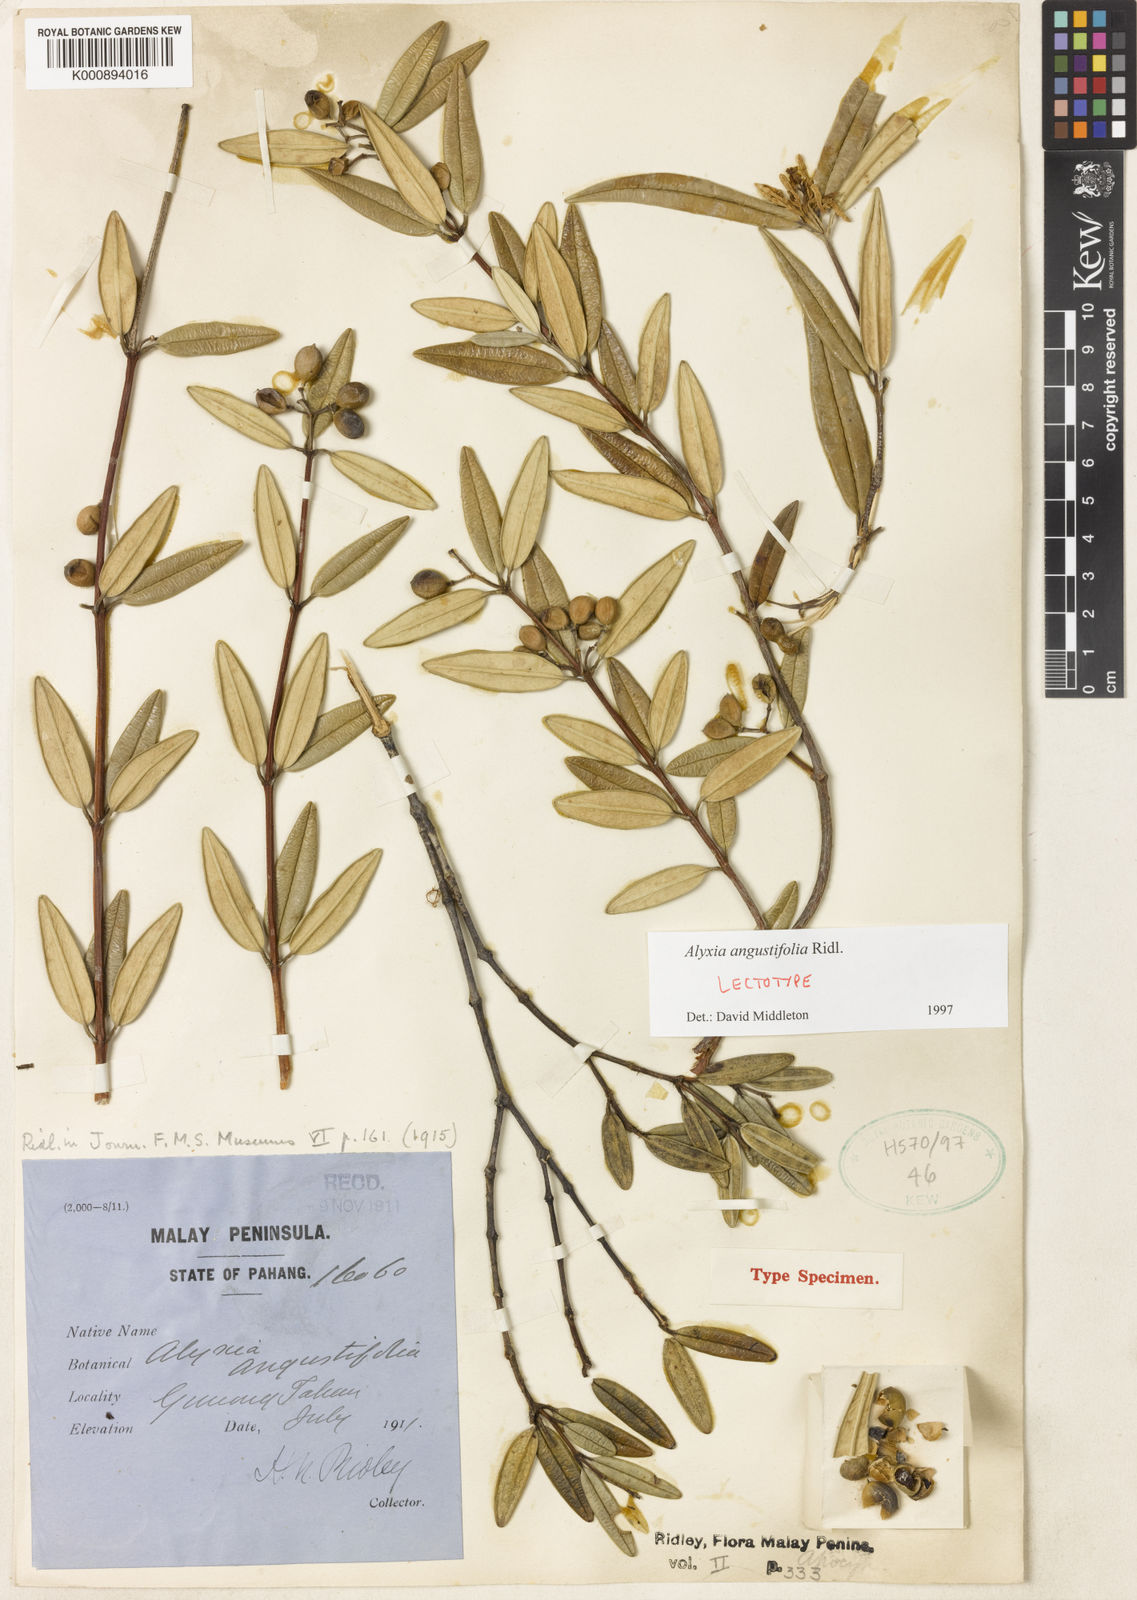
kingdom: Plantae
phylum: Tracheophyta
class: Magnoliopsida
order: Gentianales
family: Apocynaceae
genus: Alyxia
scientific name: Alyxia angustifolia
